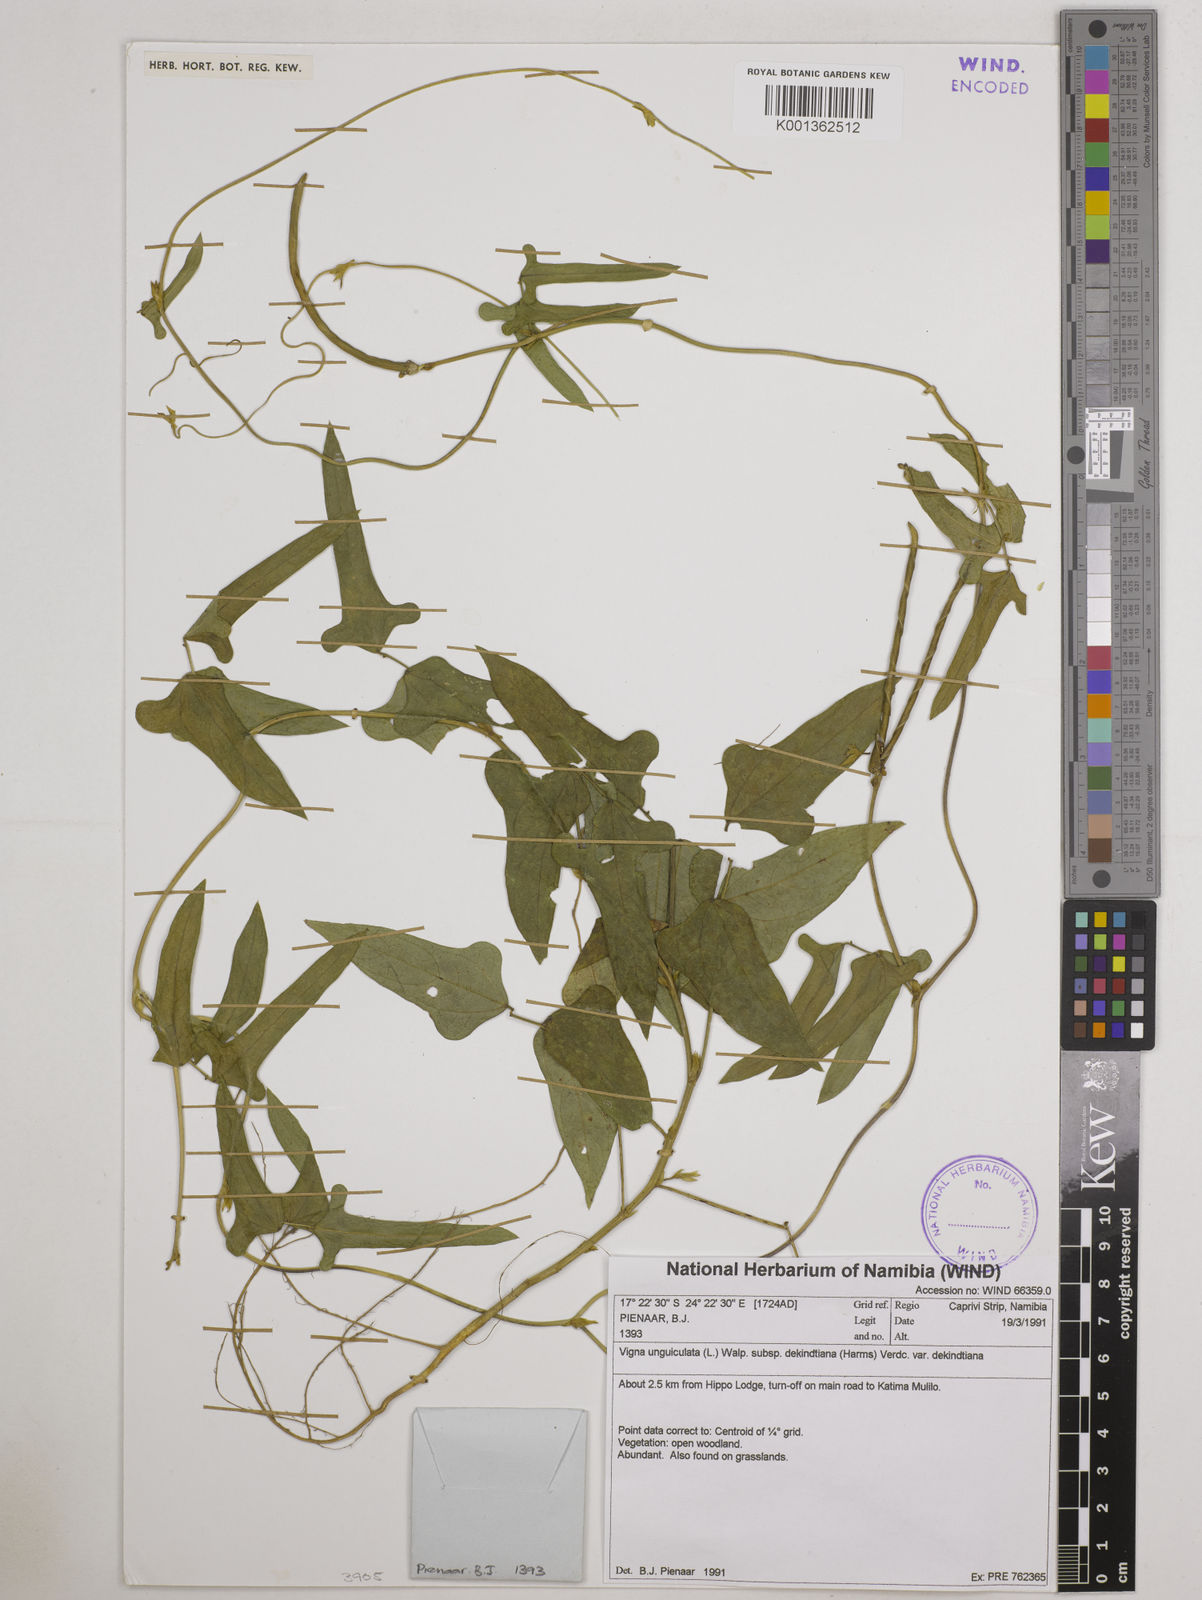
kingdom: Plantae
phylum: Tracheophyta
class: Magnoliopsida
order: Fabales
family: Fabaceae
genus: Vigna
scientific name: Vigna
